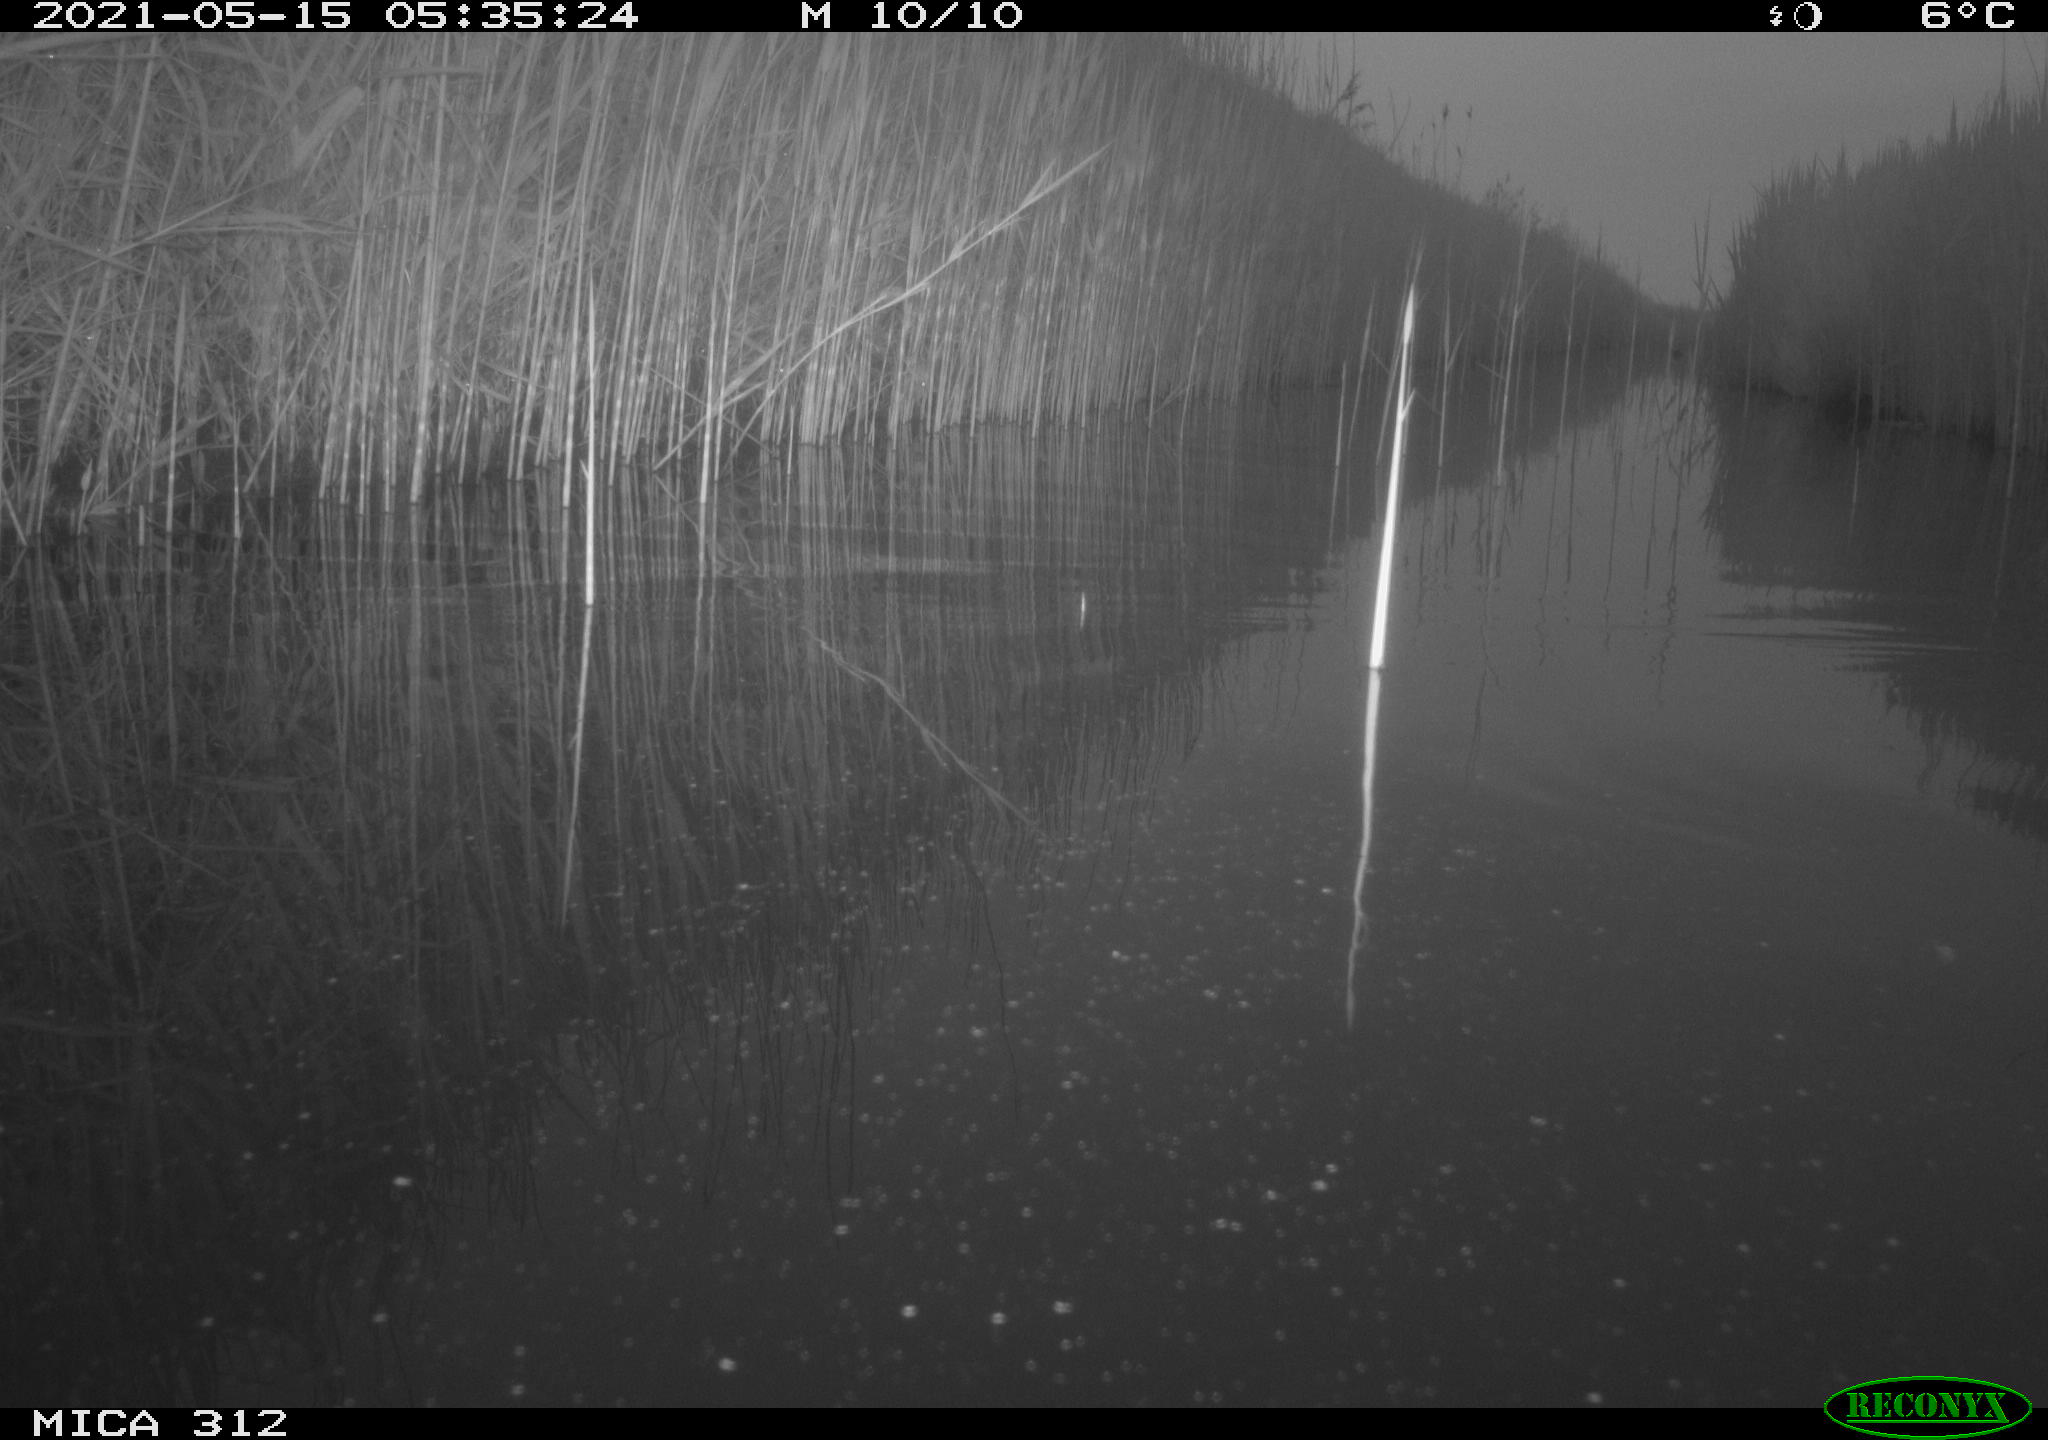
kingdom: Animalia
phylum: Chordata
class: Mammalia
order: Rodentia
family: Muridae
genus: Rattus
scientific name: Rattus norvegicus
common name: Brown rat
